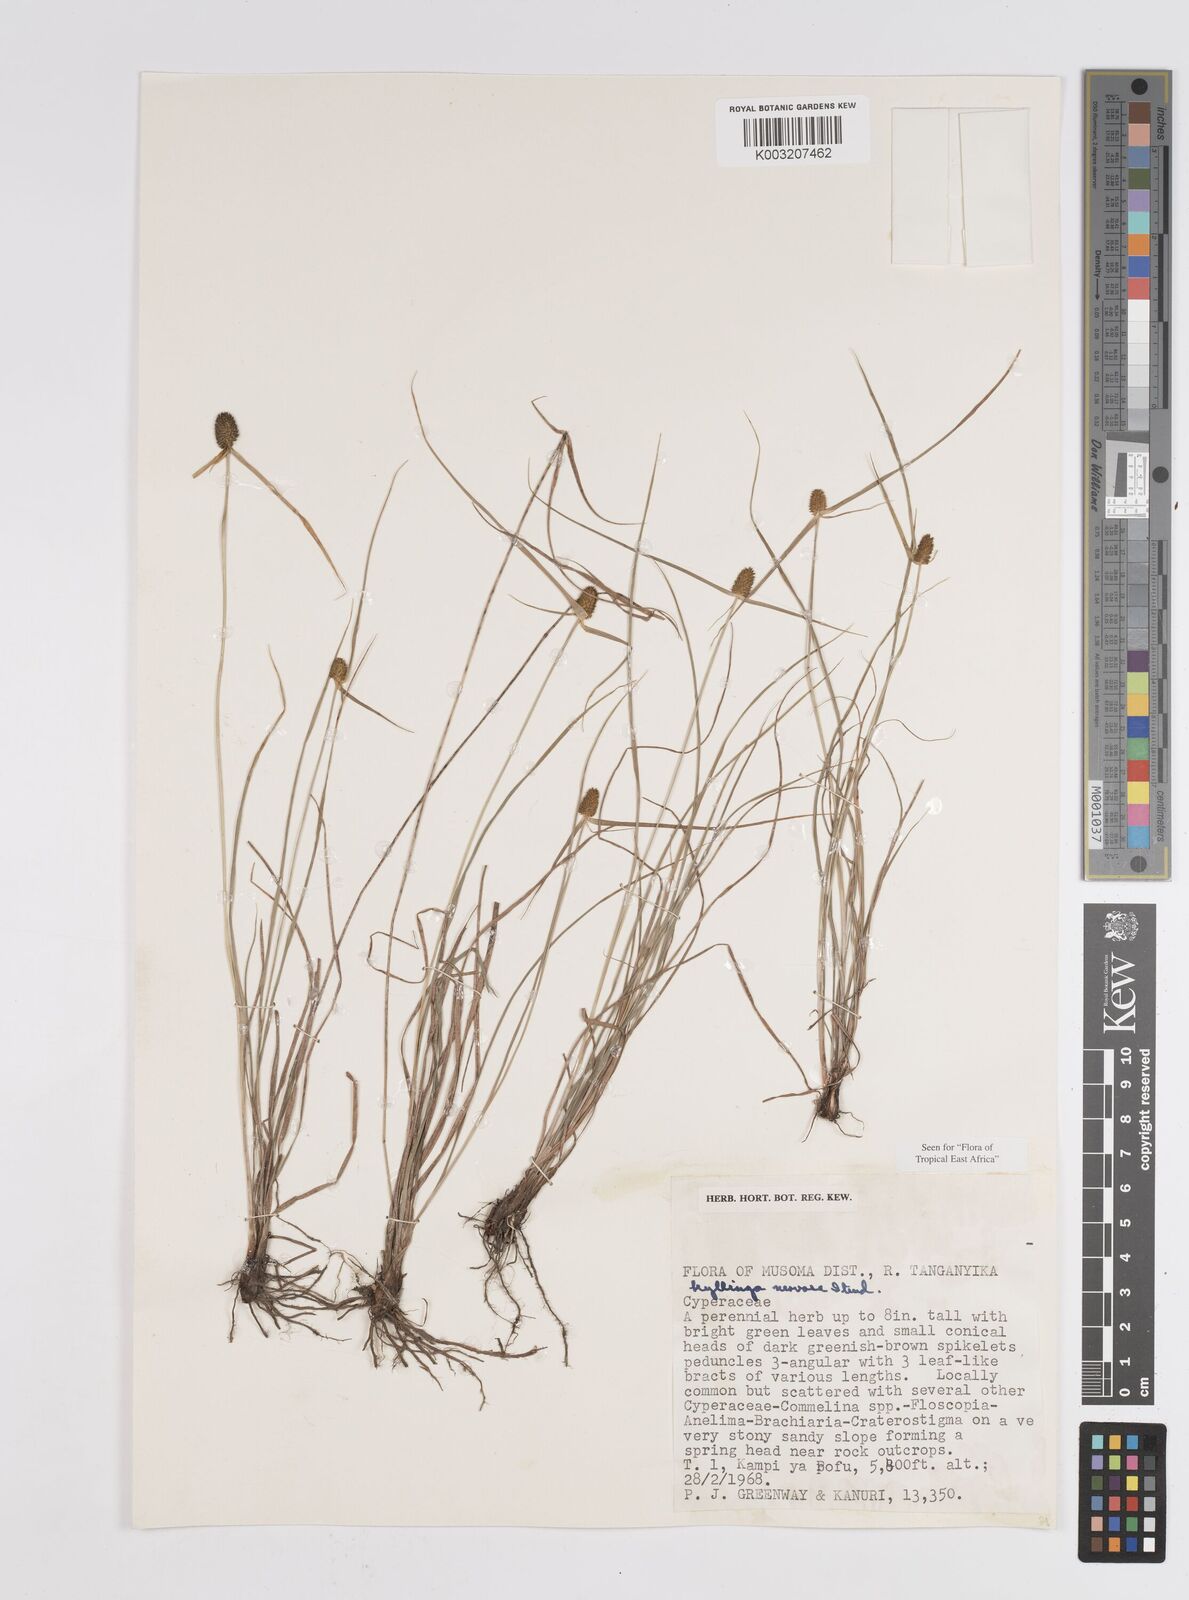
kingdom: Plantae
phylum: Tracheophyta
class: Liliopsida
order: Poales
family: Cyperaceae
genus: Cyperus
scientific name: Cyperus
